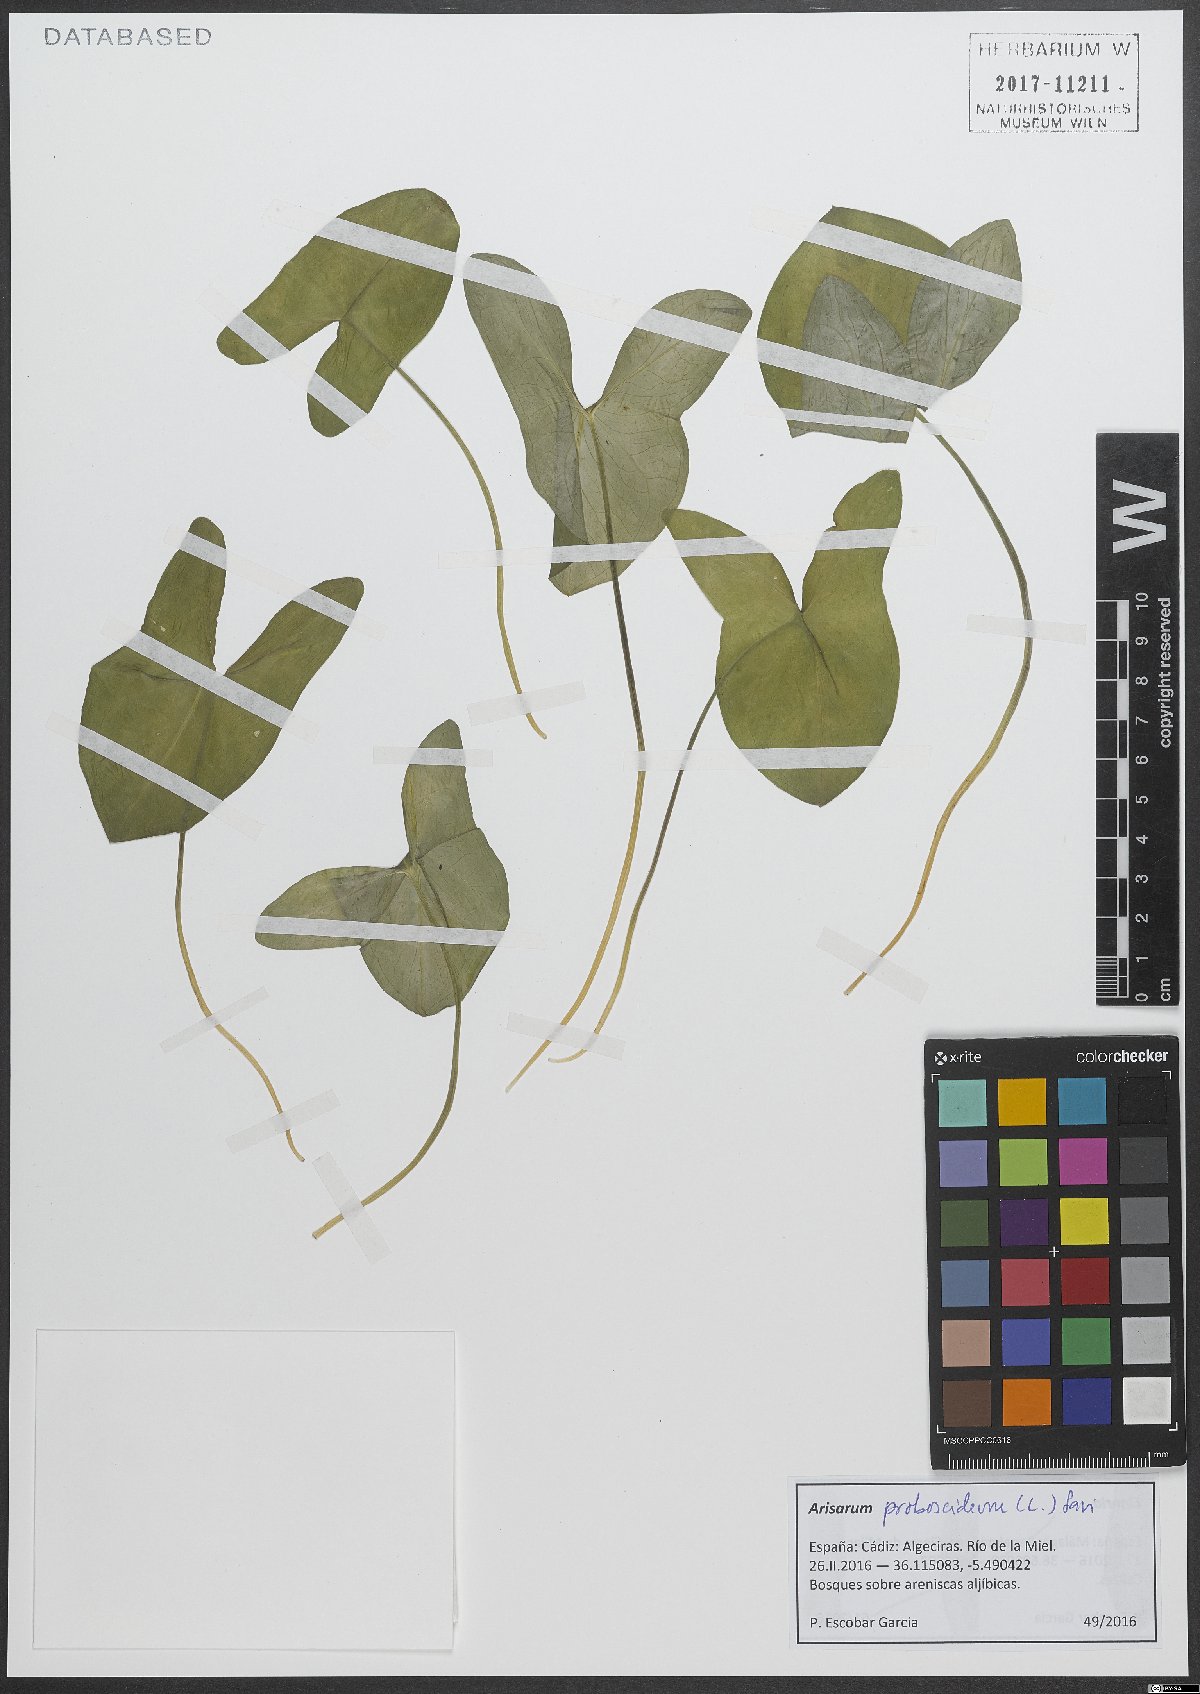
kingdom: Plantae
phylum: Tracheophyta
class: Liliopsida
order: Alismatales
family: Araceae
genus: Arisarum
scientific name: Arisarum proboscideum
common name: Mousetailplant
